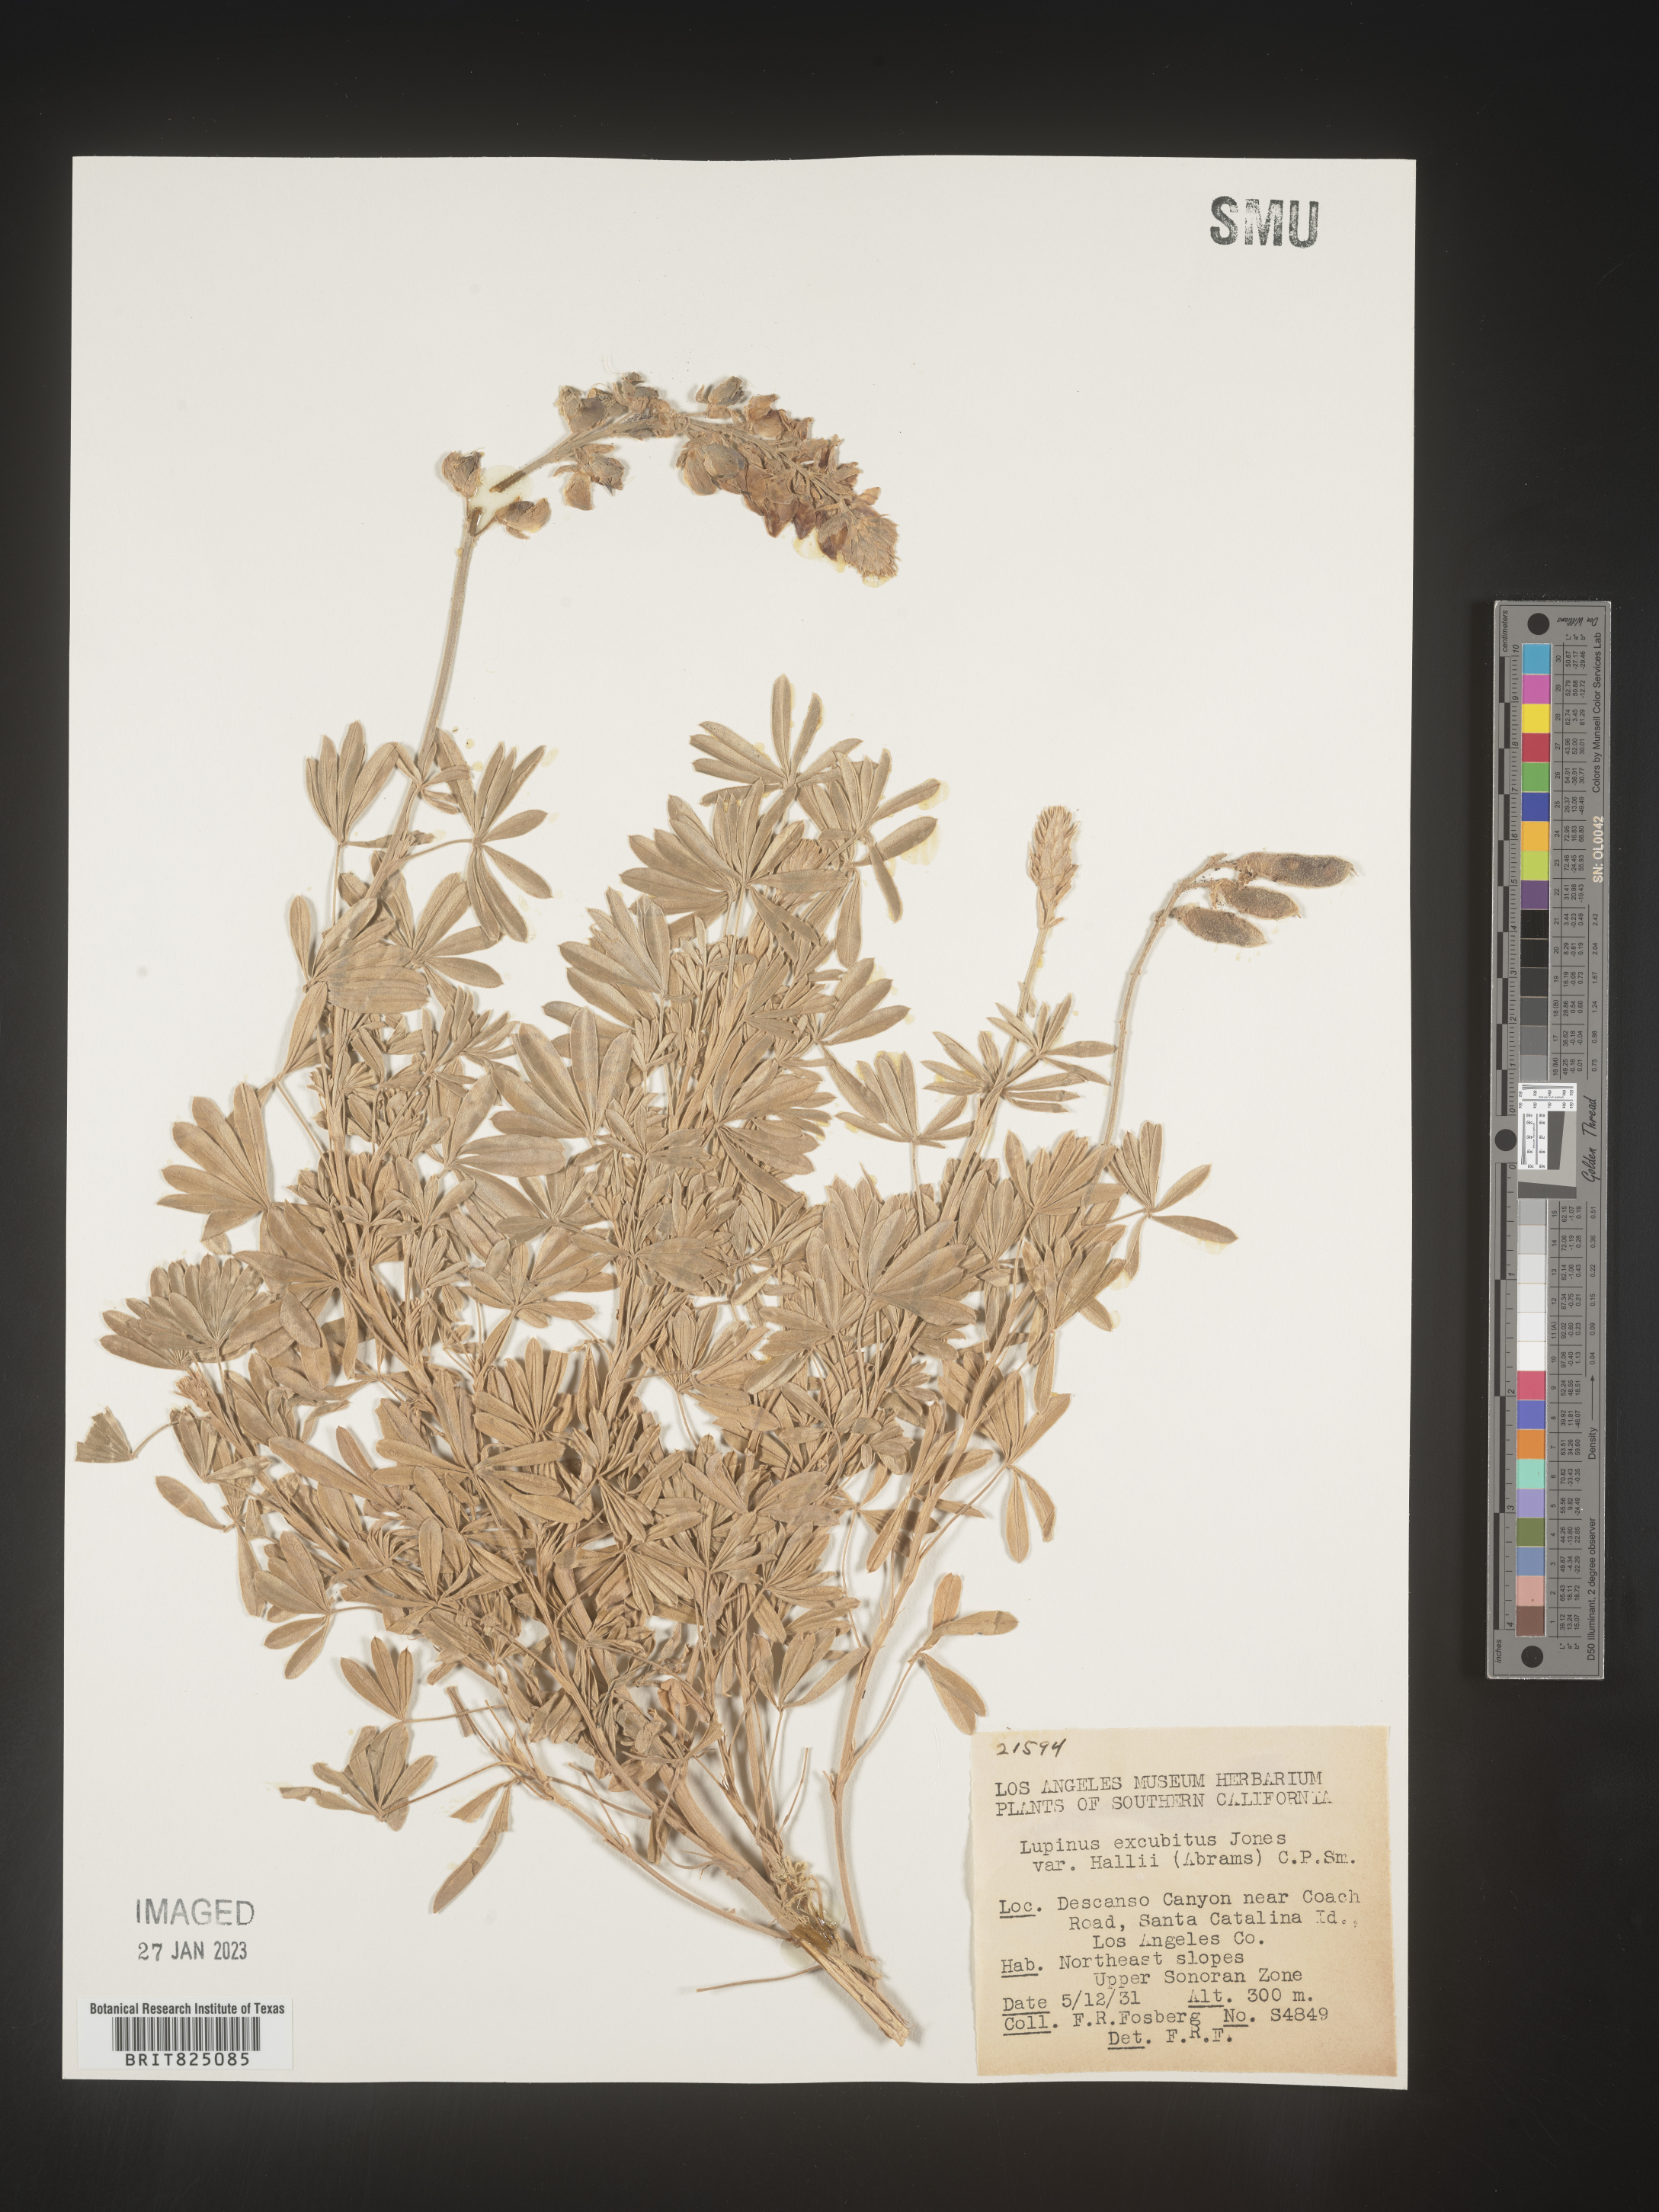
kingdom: Plantae
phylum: Tracheophyta
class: Magnoliopsida
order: Fabales
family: Fabaceae
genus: Lupinus
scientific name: Lupinus
